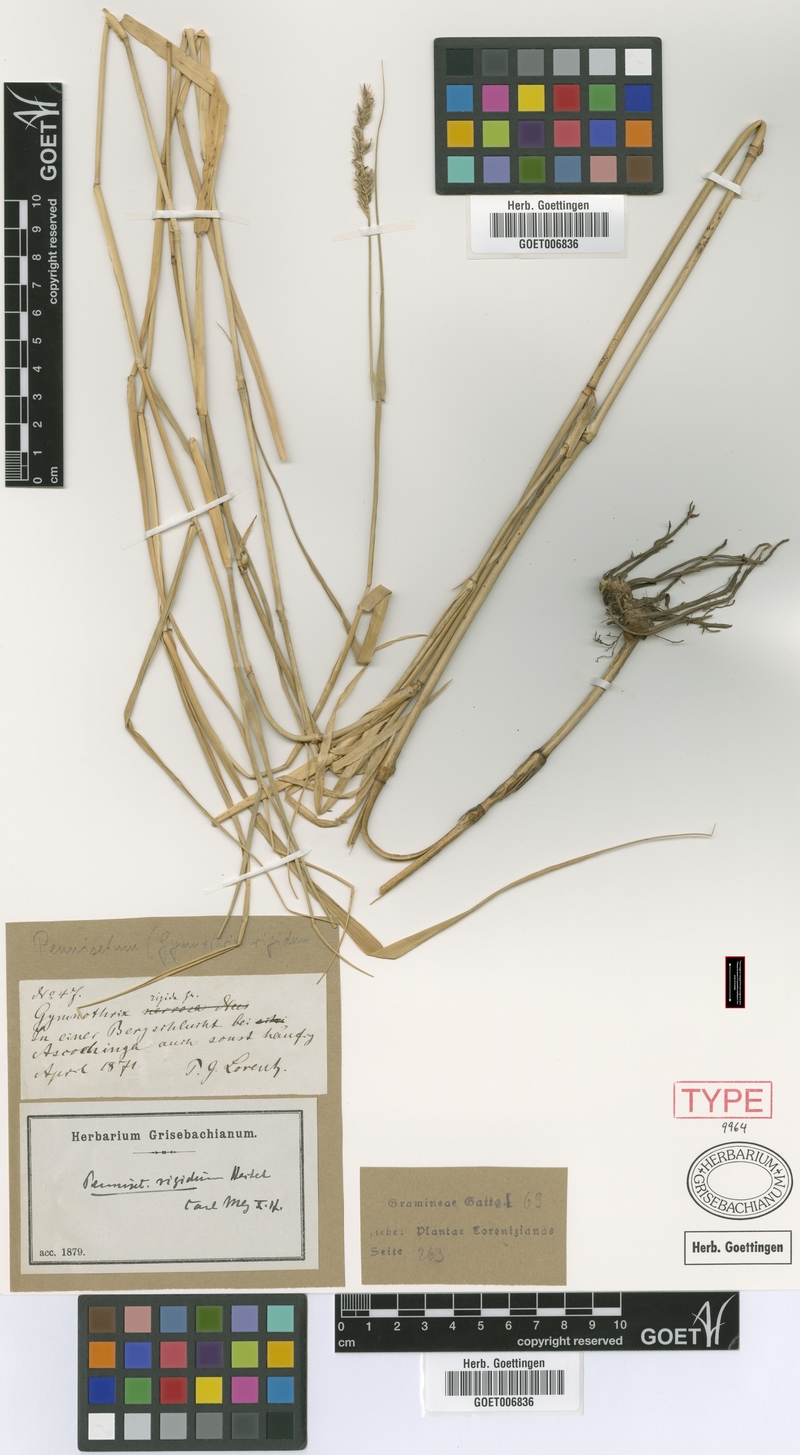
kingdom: Plantae
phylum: Tracheophyta
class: Liliopsida
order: Poales
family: Poaceae
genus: Cenchrus
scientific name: Cenchrus rigidus
